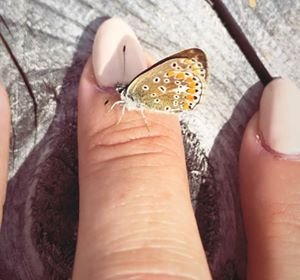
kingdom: Animalia
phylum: Arthropoda
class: Insecta
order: Lepidoptera
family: Lycaenidae
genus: Polyommatus
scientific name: Polyommatus icarus
